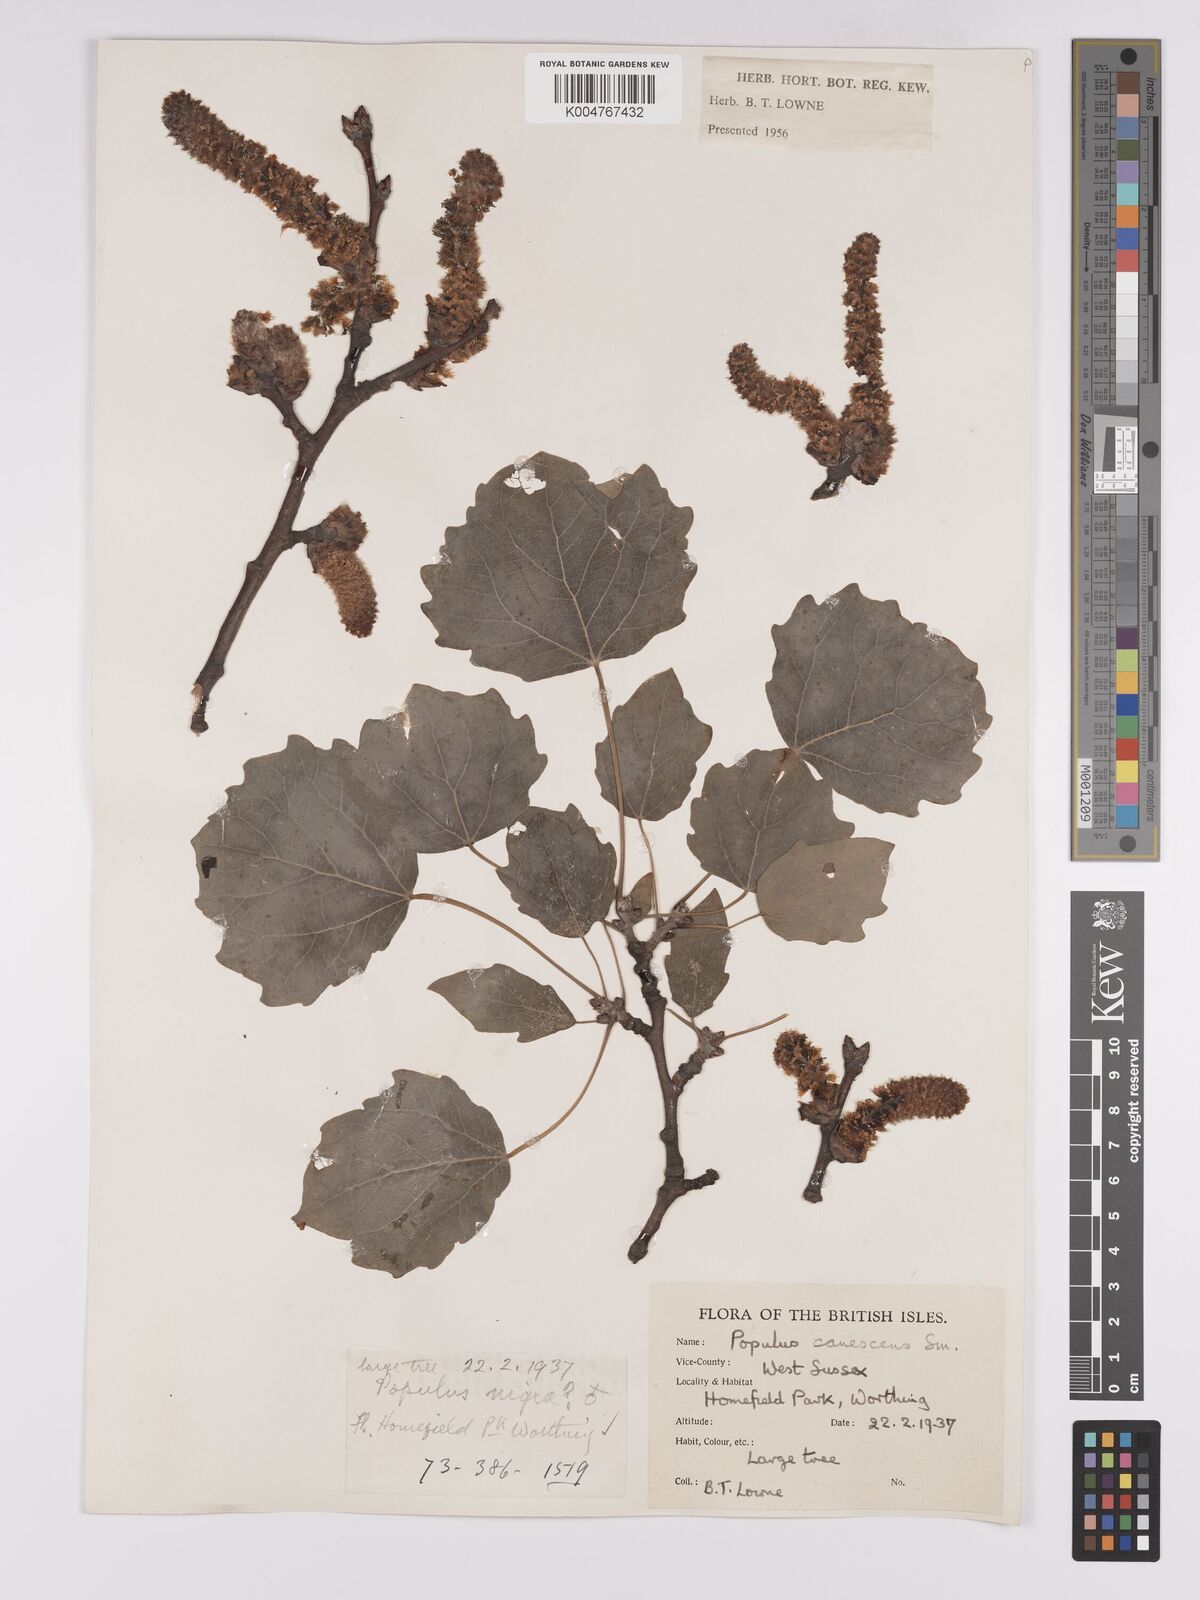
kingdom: Plantae
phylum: Tracheophyta
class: Magnoliopsida
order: Malpighiales
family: Salicaceae
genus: Populus
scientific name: Populus canescens
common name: Gray poplar
